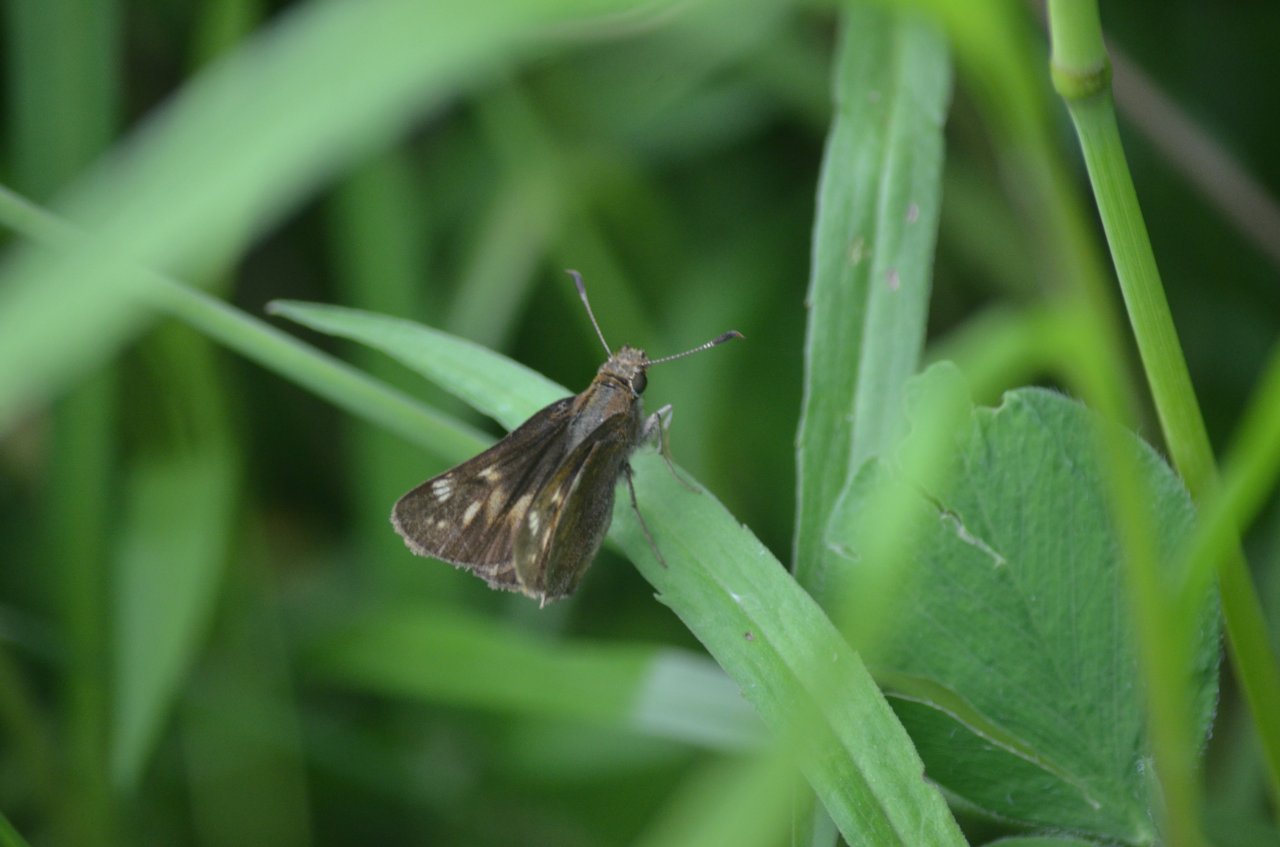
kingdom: Animalia
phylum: Arthropoda
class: Insecta
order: Lepidoptera
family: Hesperiidae
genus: Lon
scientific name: Lon hobomok
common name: Hobomok Skipper
